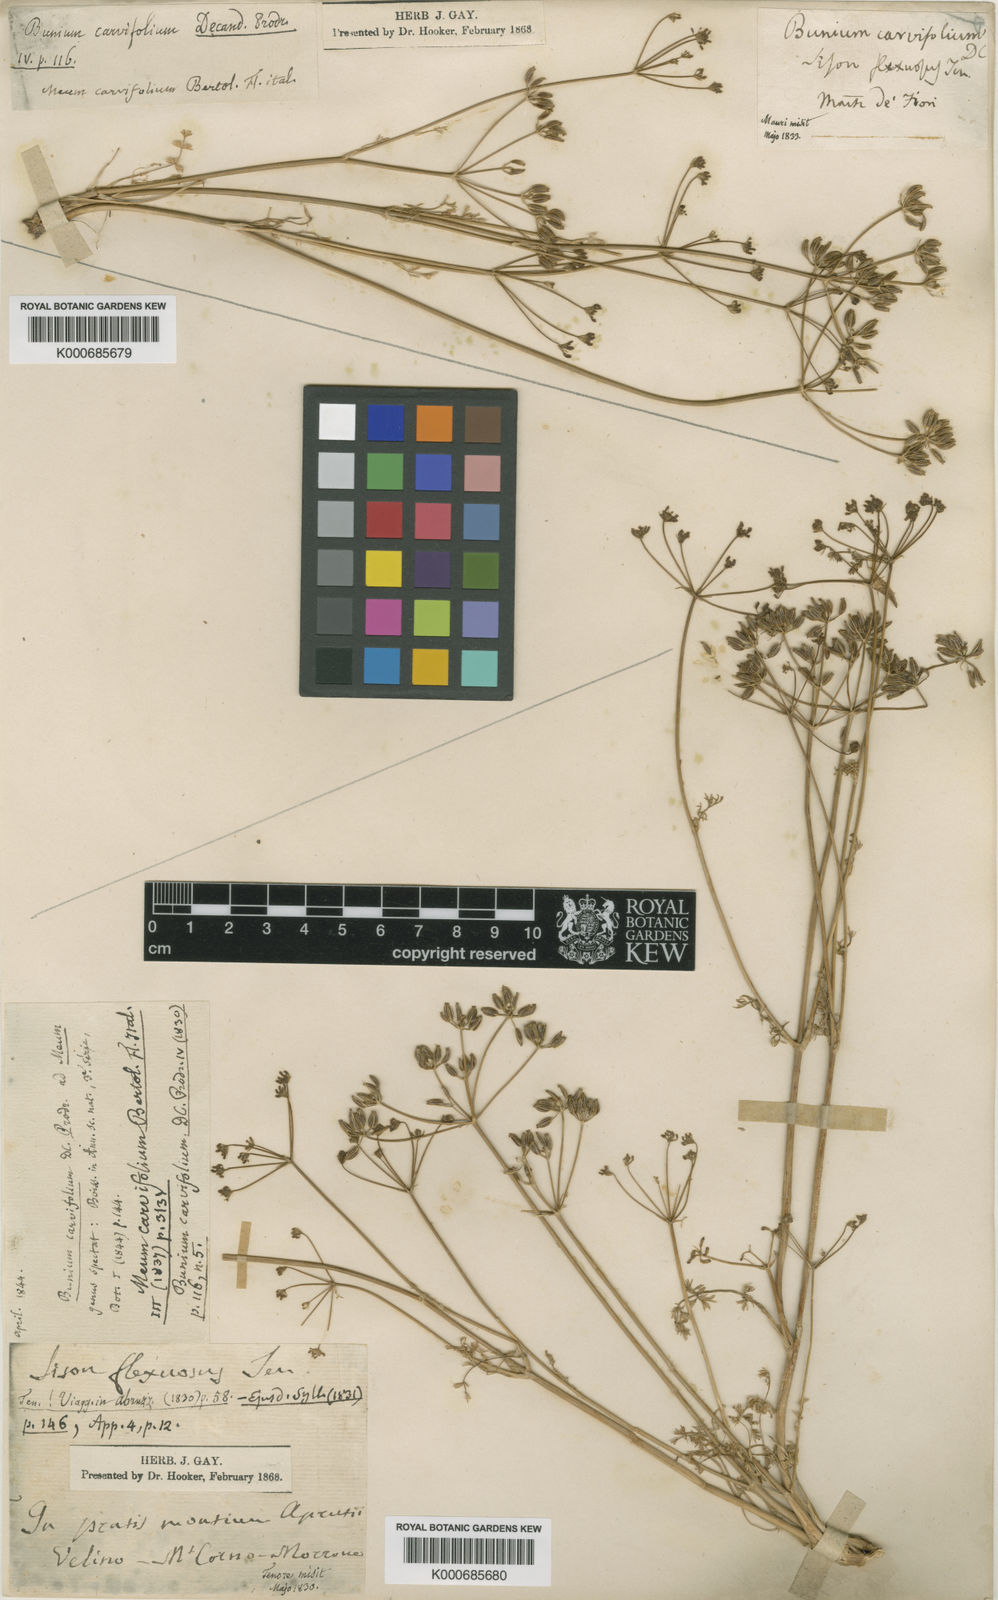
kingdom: Plantae
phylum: Tracheophyta
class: Magnoliopsida
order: Apiales
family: Apiaceae
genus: Carum
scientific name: Carum heldreichii
